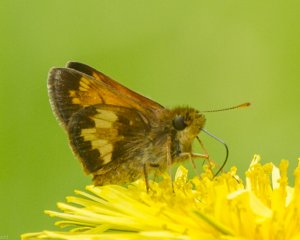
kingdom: Animalia
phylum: Arthropoda
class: Insecta
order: Lepidoptera
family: Hesperiidae
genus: Lon
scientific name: Lon hobomok
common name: Hobomok Skipper
